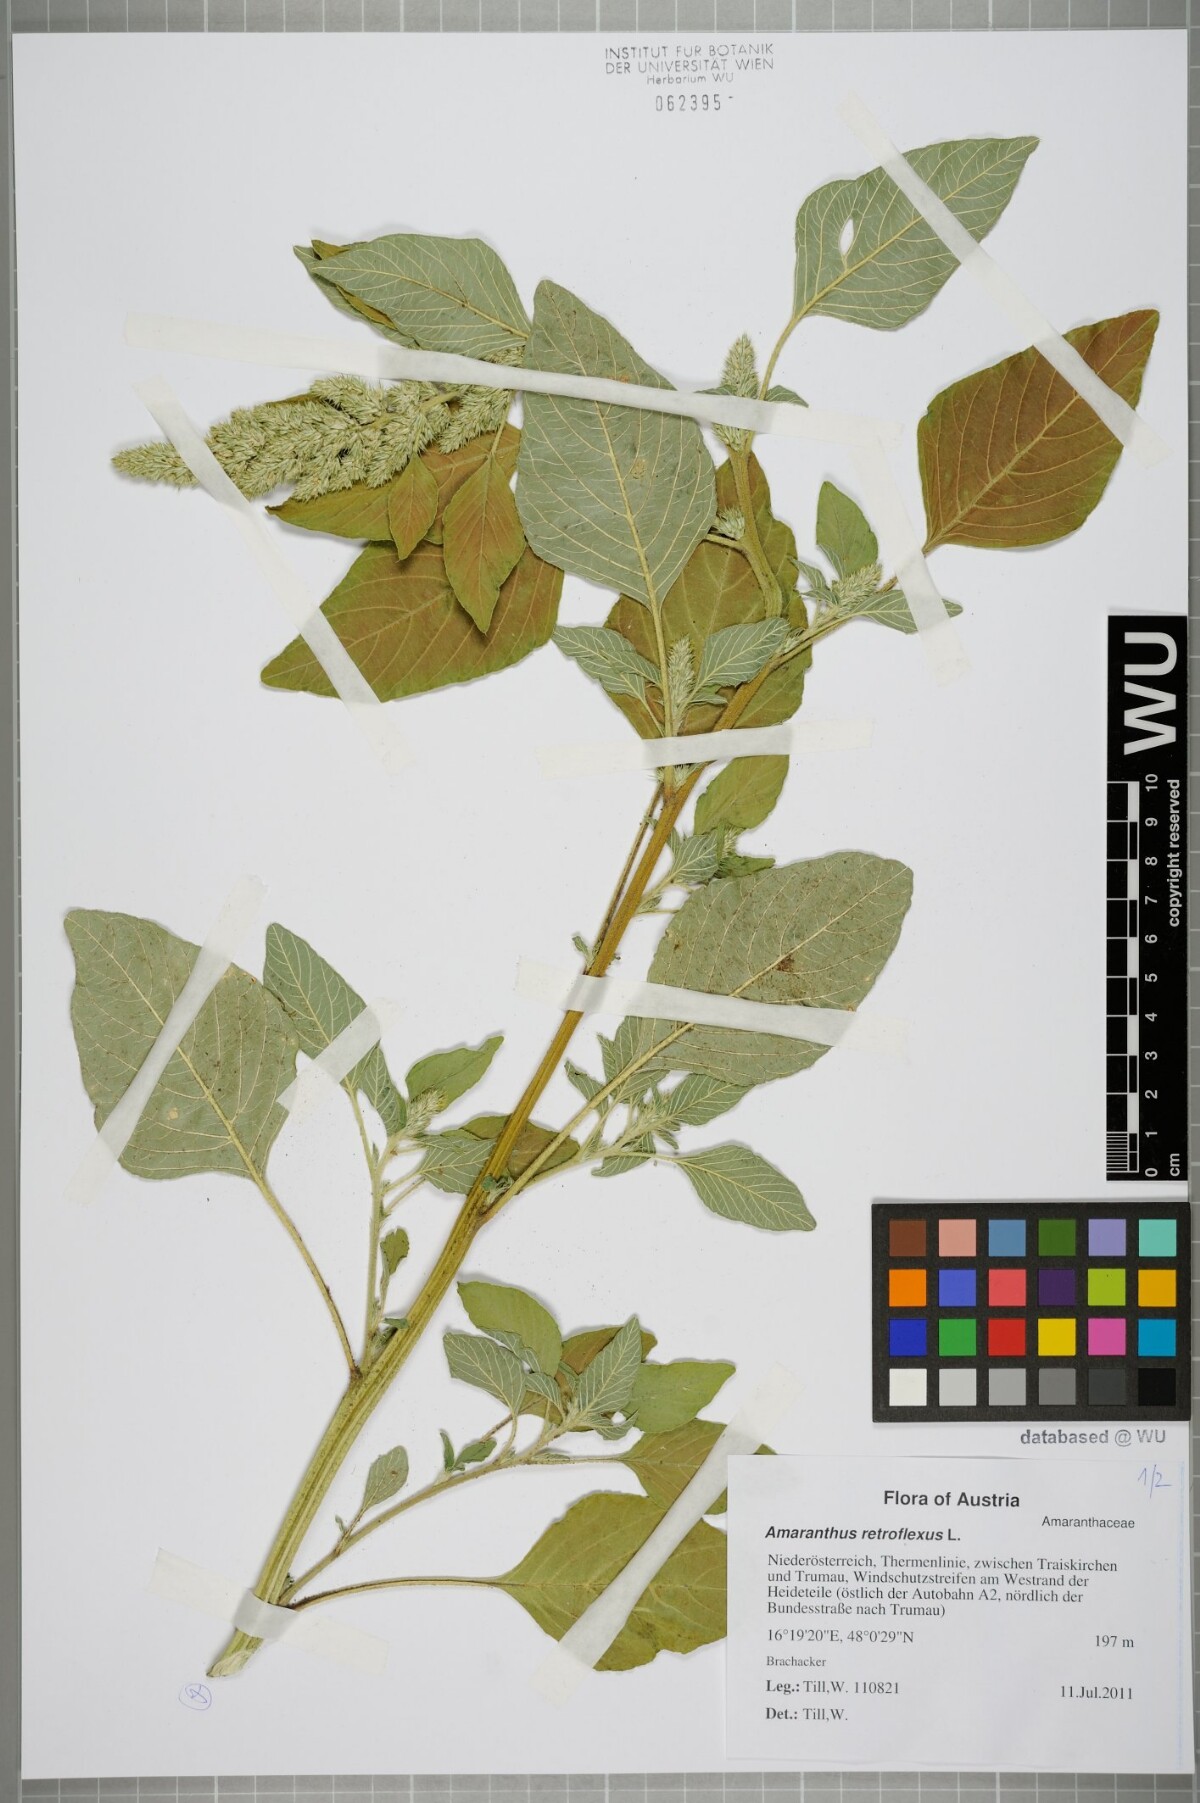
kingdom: Plantae
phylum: Tracheophyta
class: Magnoliopsida
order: Caryophyllales
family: Amaranthaceae
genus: Amaranthus
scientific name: Amaranthus retroflexus
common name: Redroot amaranth
